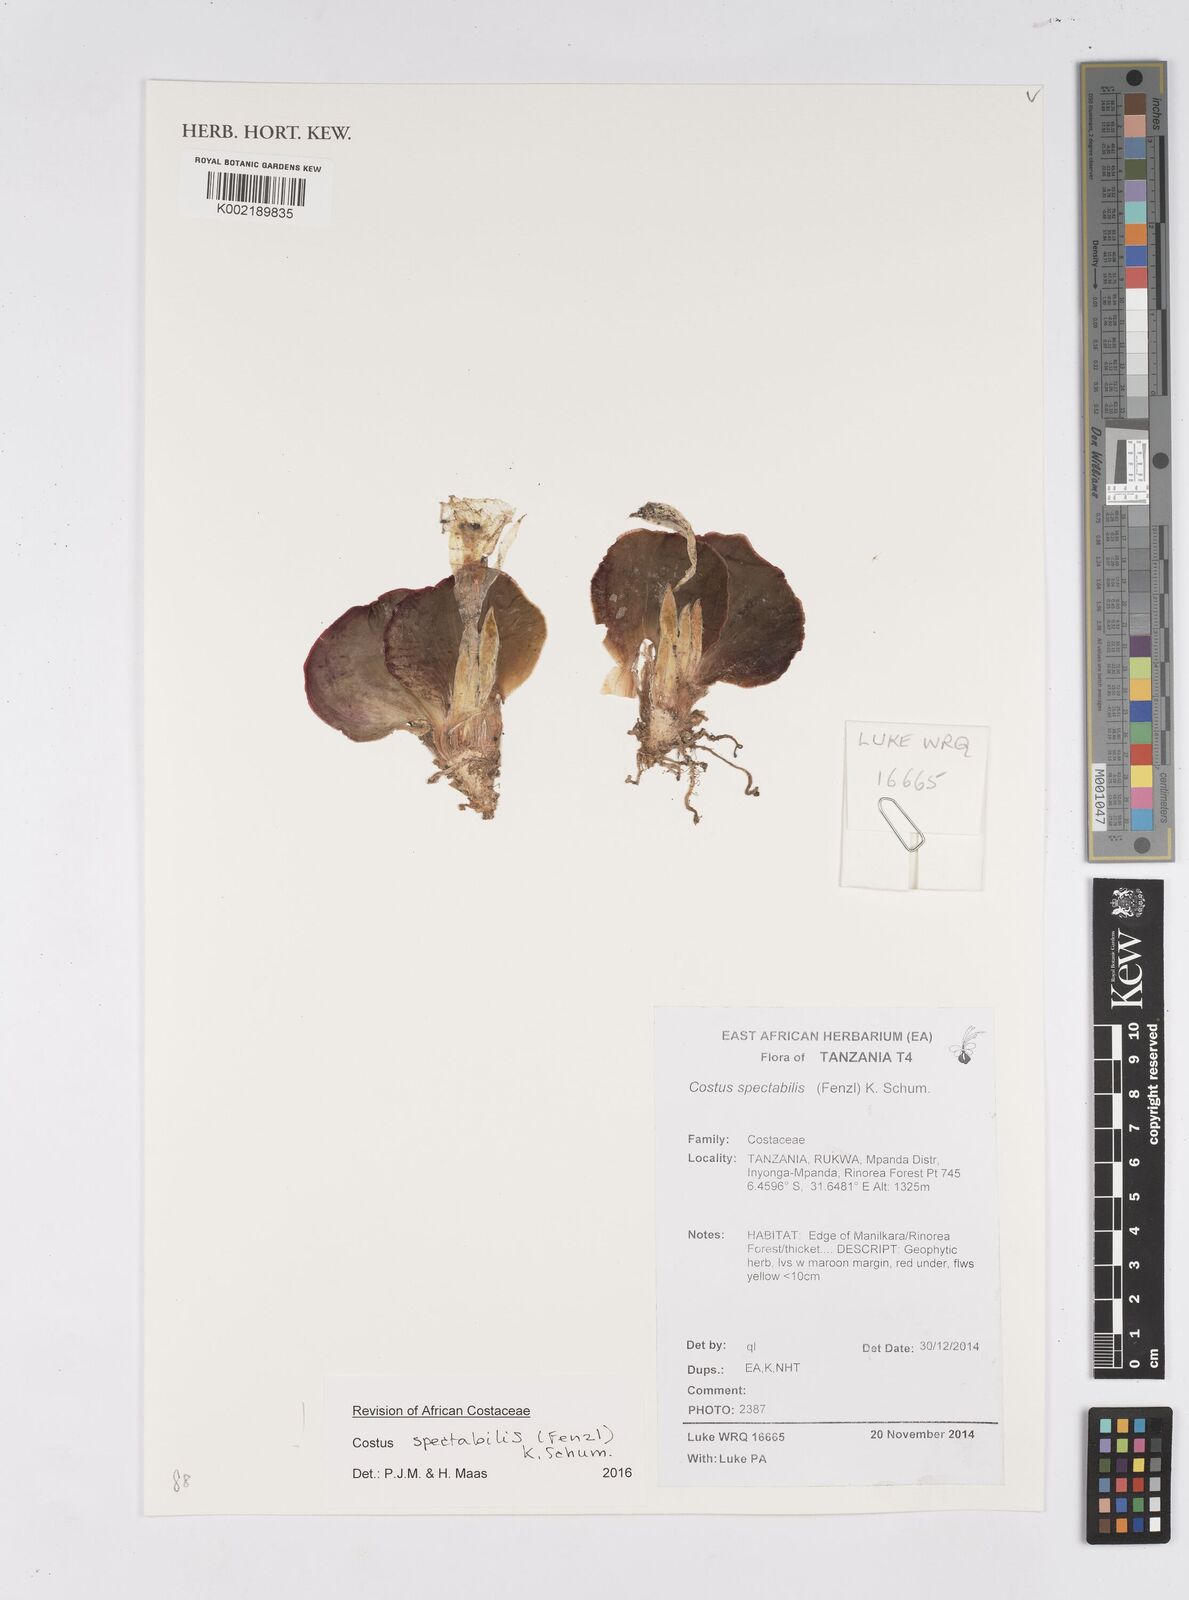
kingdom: Plantae
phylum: Tracheophyta
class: Liliopsida
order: Zingiberales
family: Costaceae
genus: Costus
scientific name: Costus spectabilis
